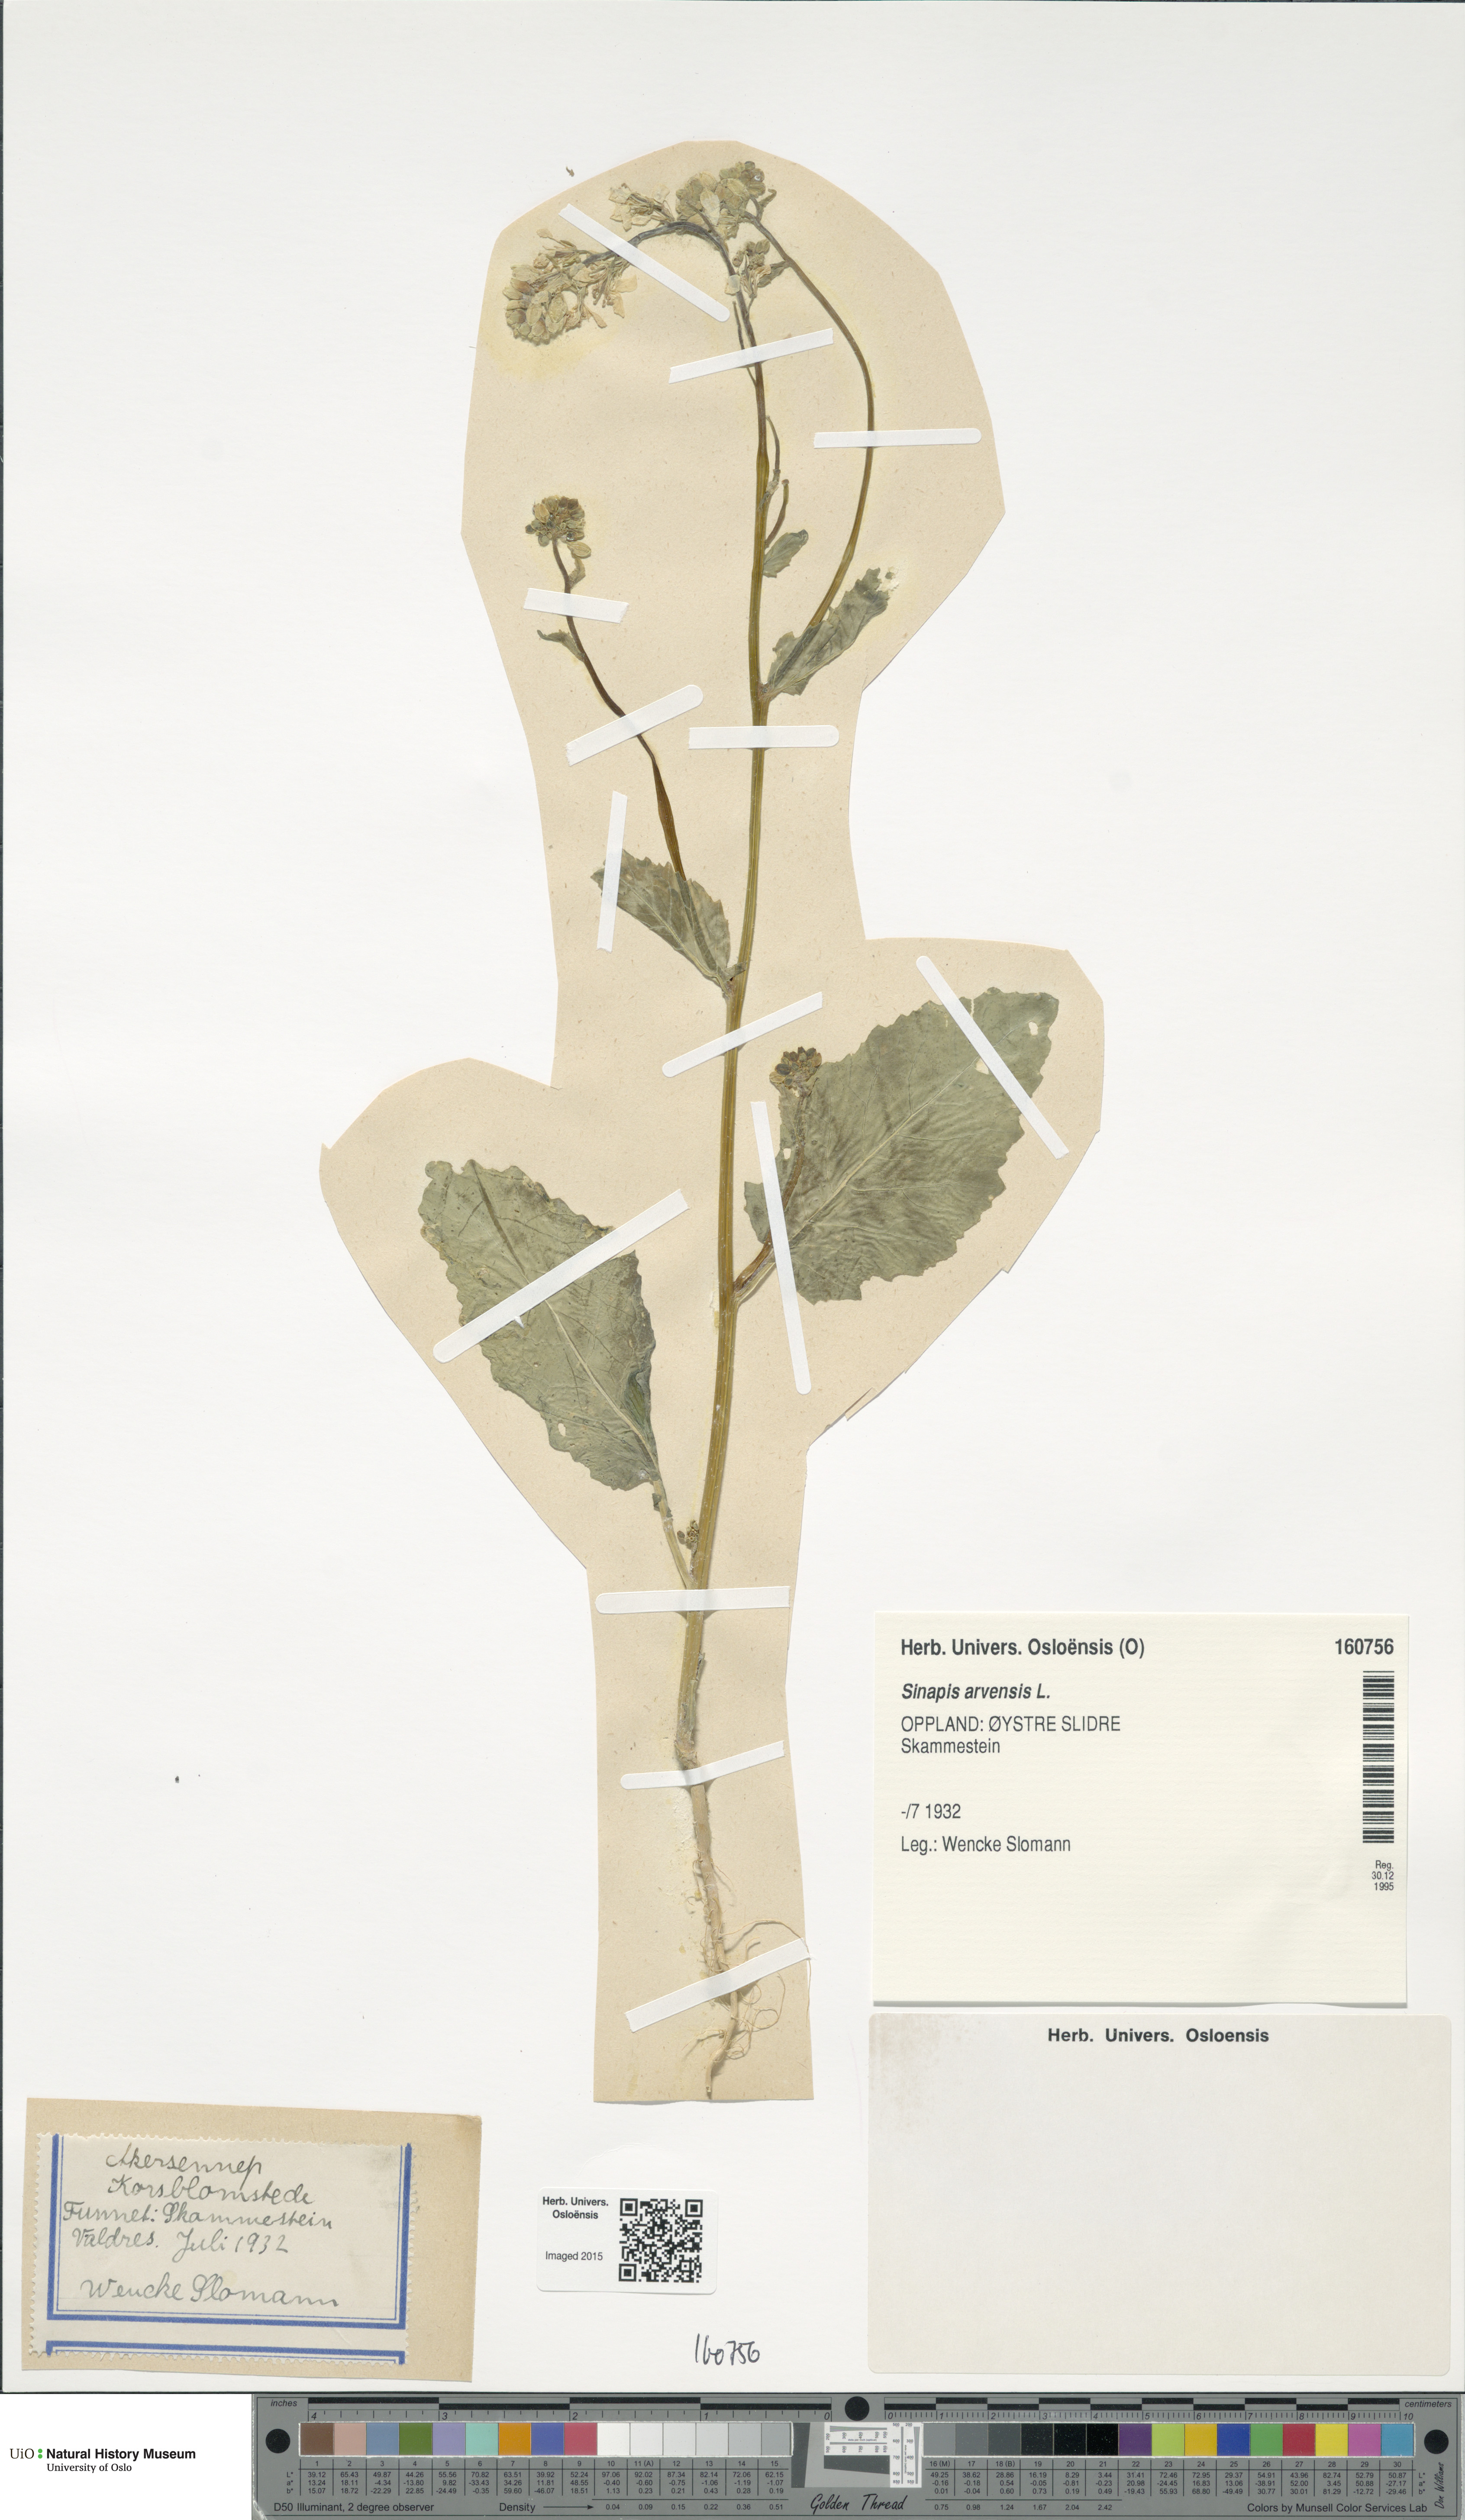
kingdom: Plantae
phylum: Tracheophyta
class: Magnoliopsida
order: Brassicales
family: Brassicaceae
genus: Sinapis
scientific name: Sinapis arvensis
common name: Charlock
